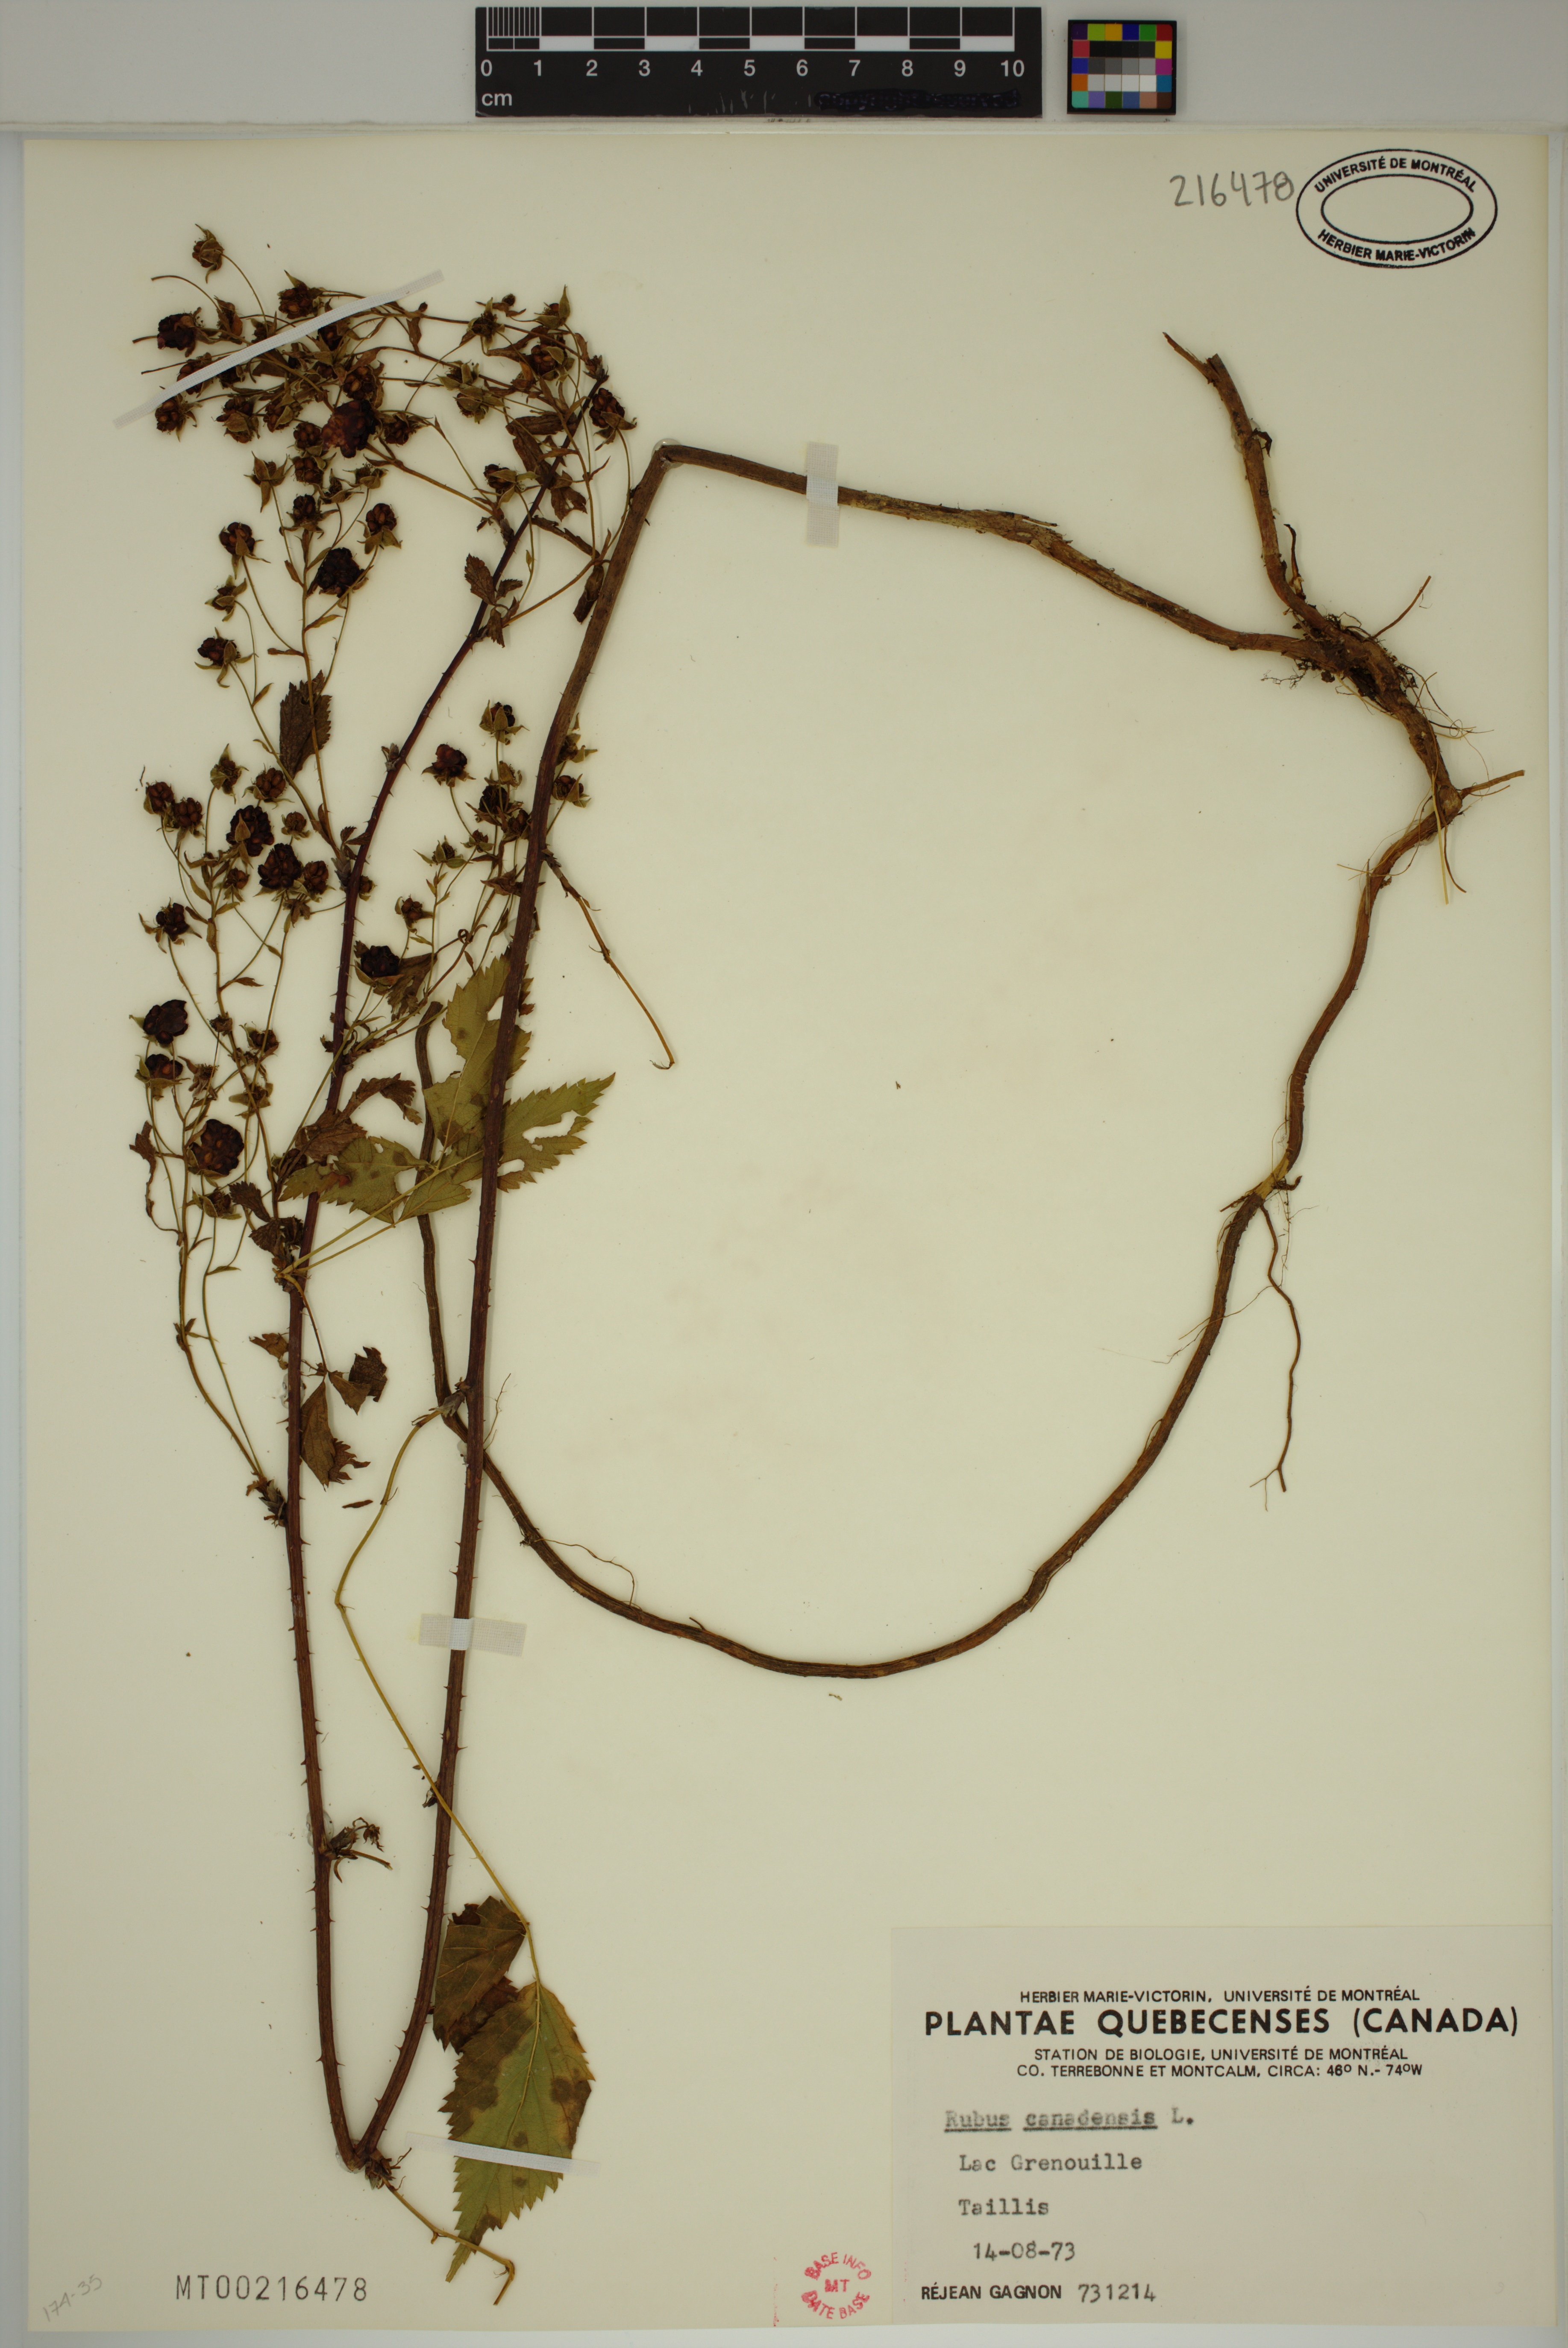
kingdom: Plantae
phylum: Tracheophyta
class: Magnoliopsida
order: Rosales
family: Rosaceae
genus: Rubus
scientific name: Rubus canadensis
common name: Smooth blackberry
